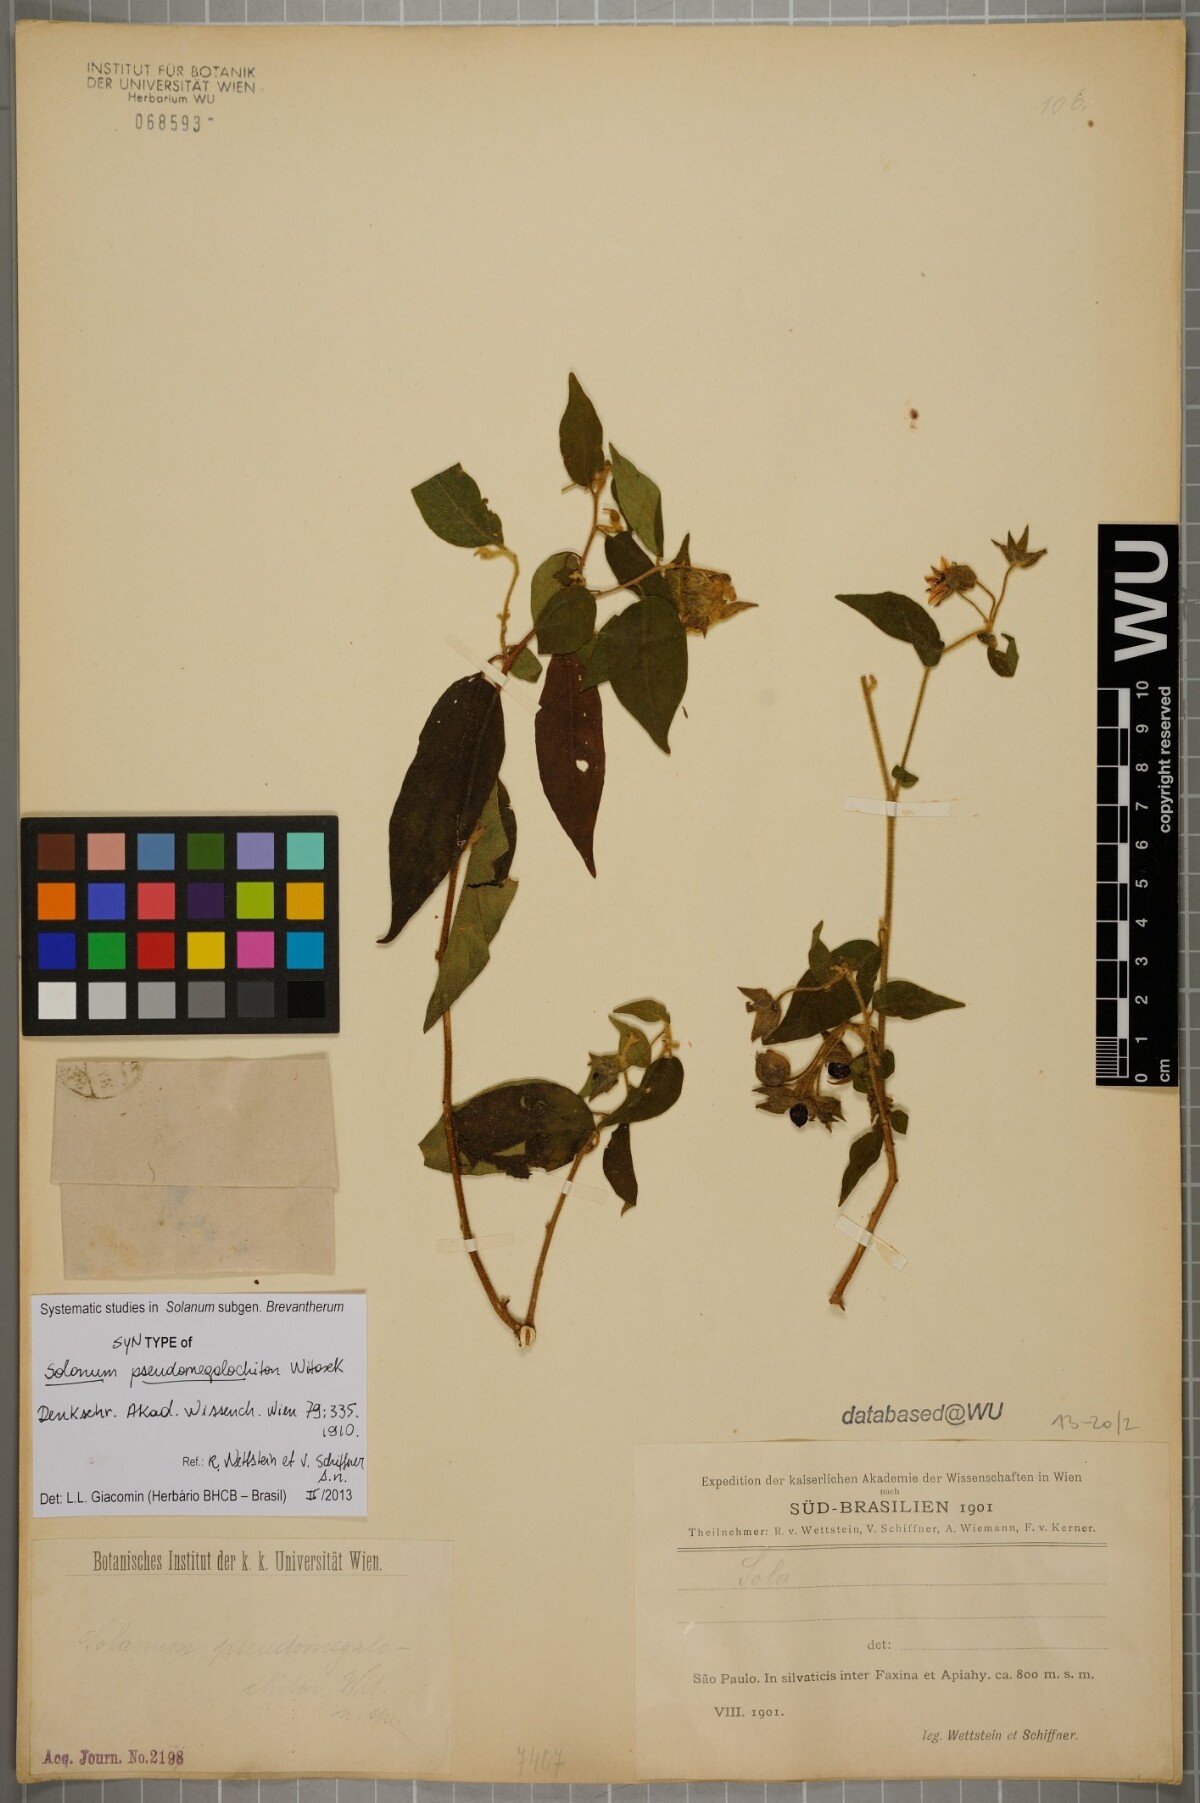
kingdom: Plantae
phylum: Tracheophyta
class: Magnoliopsida
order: Solanales
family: Solanaceae
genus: Solanum
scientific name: Solanum megalochiton
